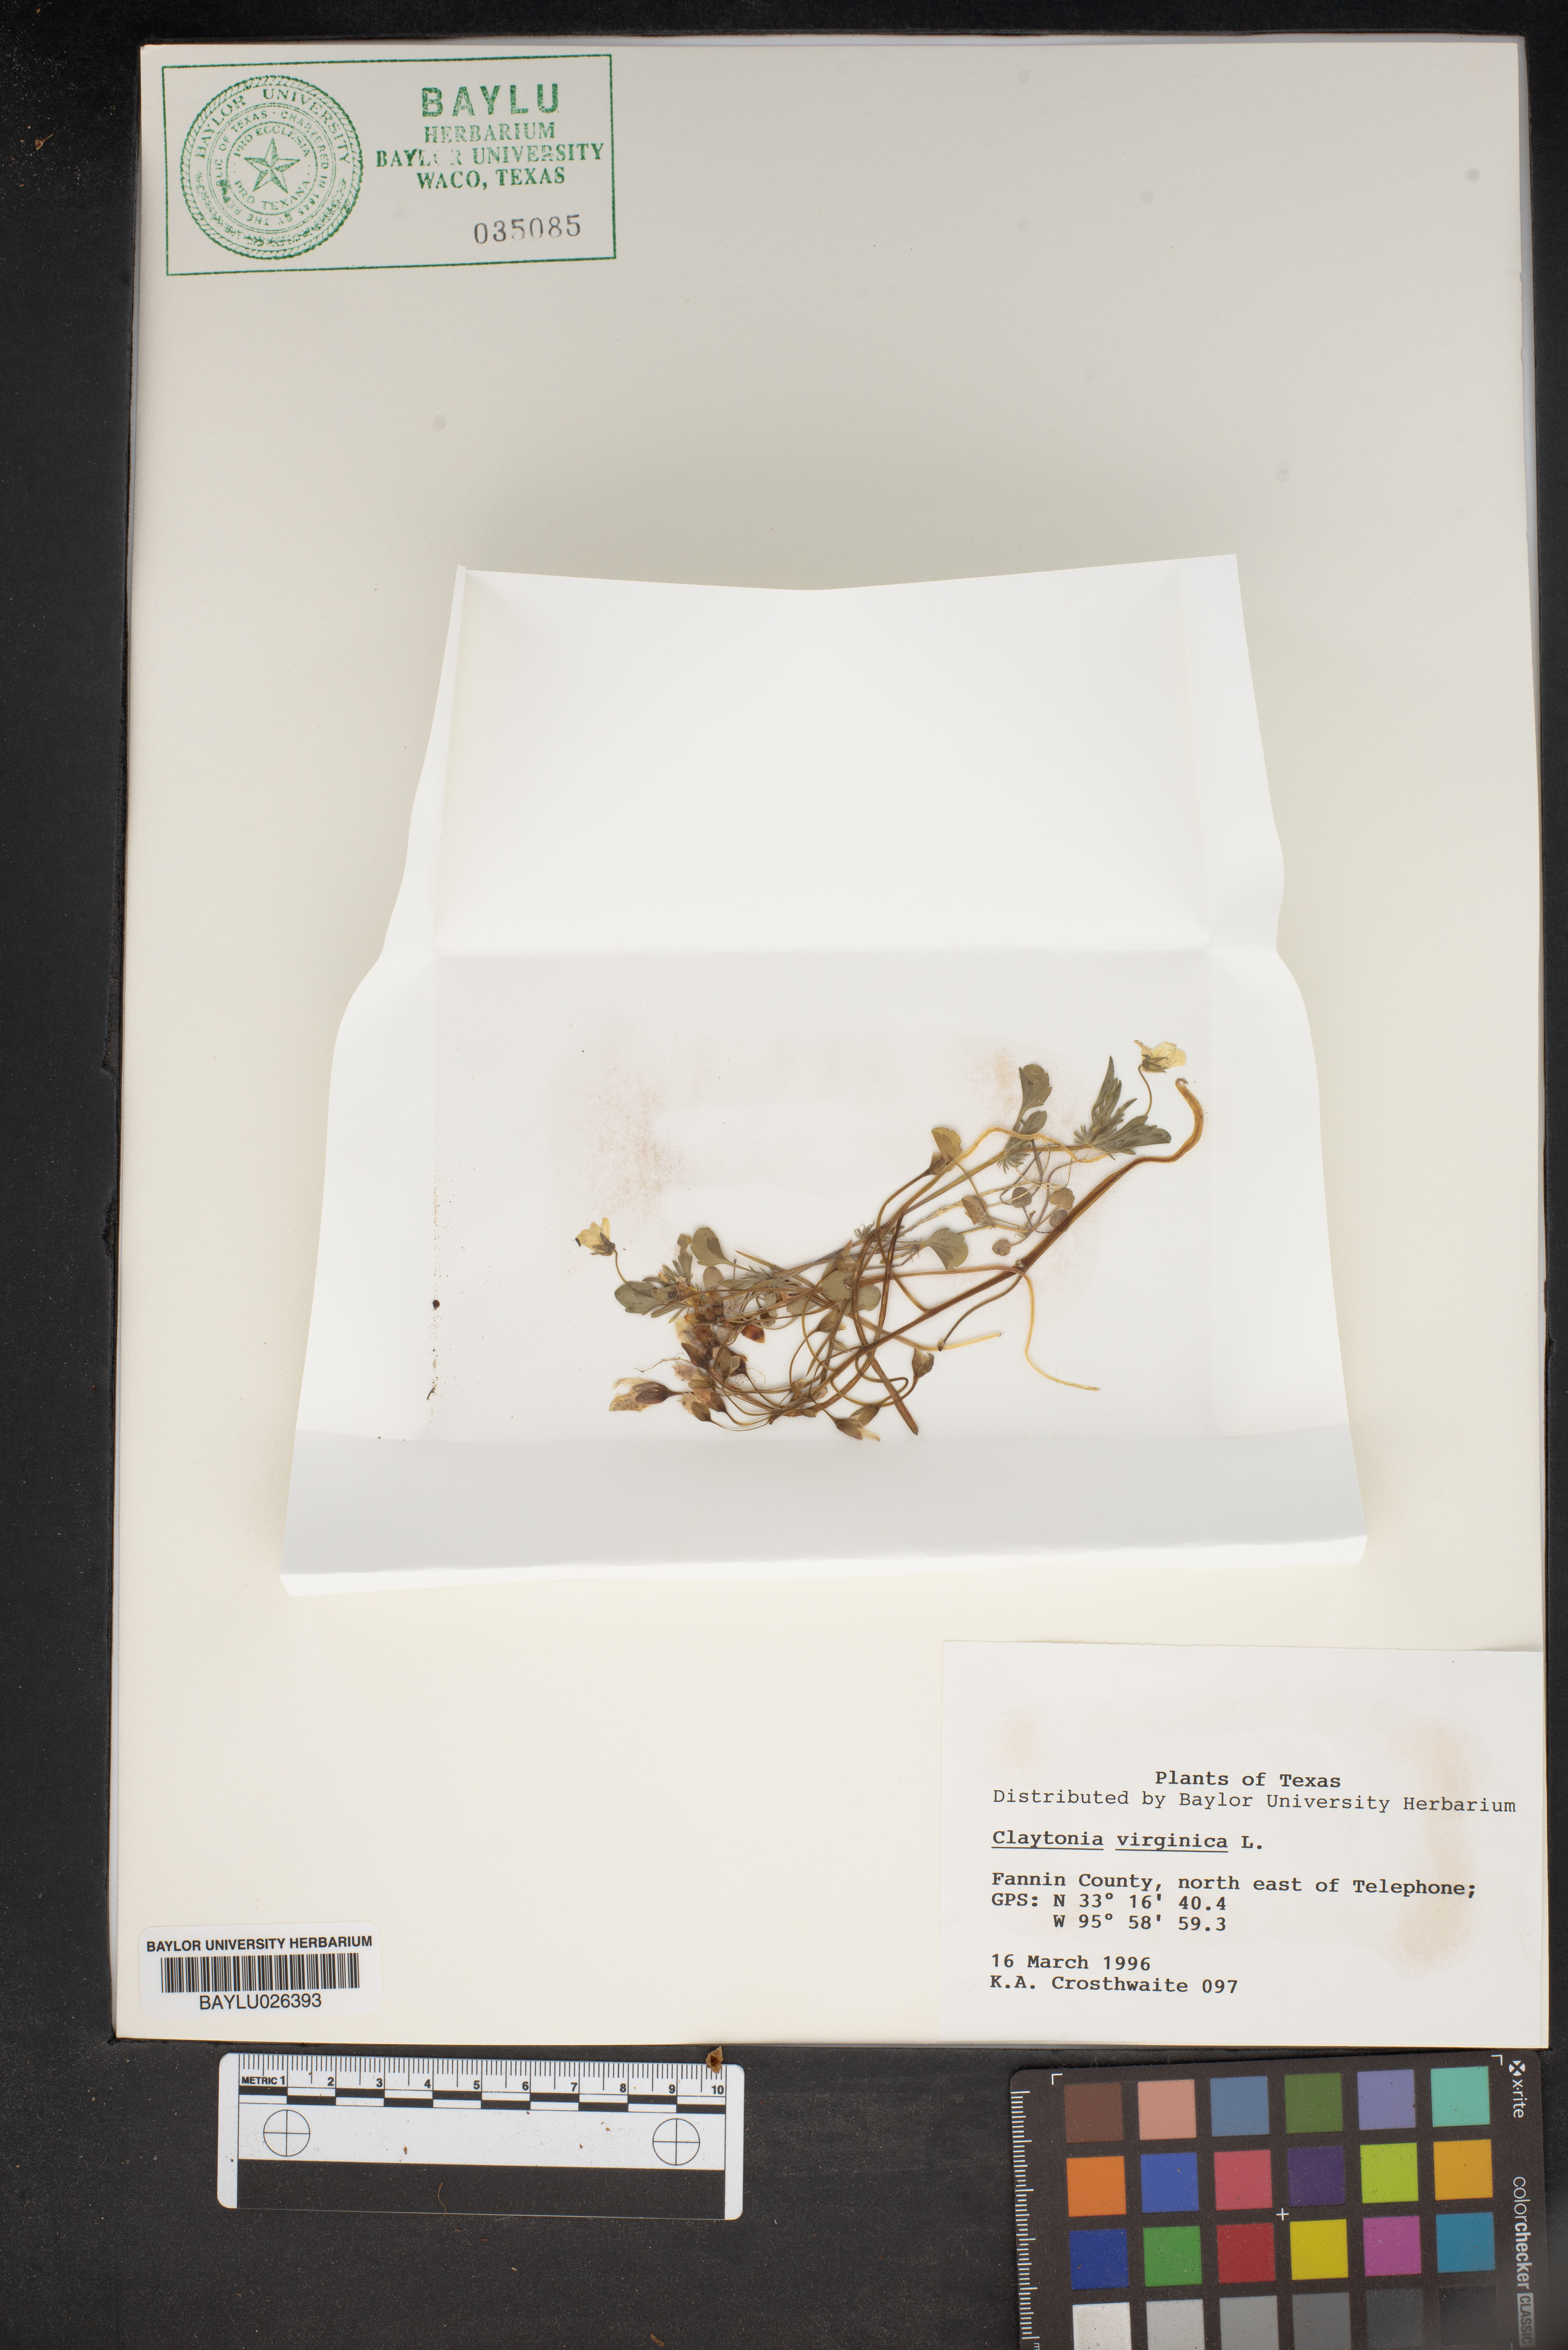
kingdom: Plantae
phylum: Tracheophyta
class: Magnoliopsida
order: Caryophyllales
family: Montiaceae
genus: Claytonia
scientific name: Claytonia virginica
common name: Virginia springbeauty
